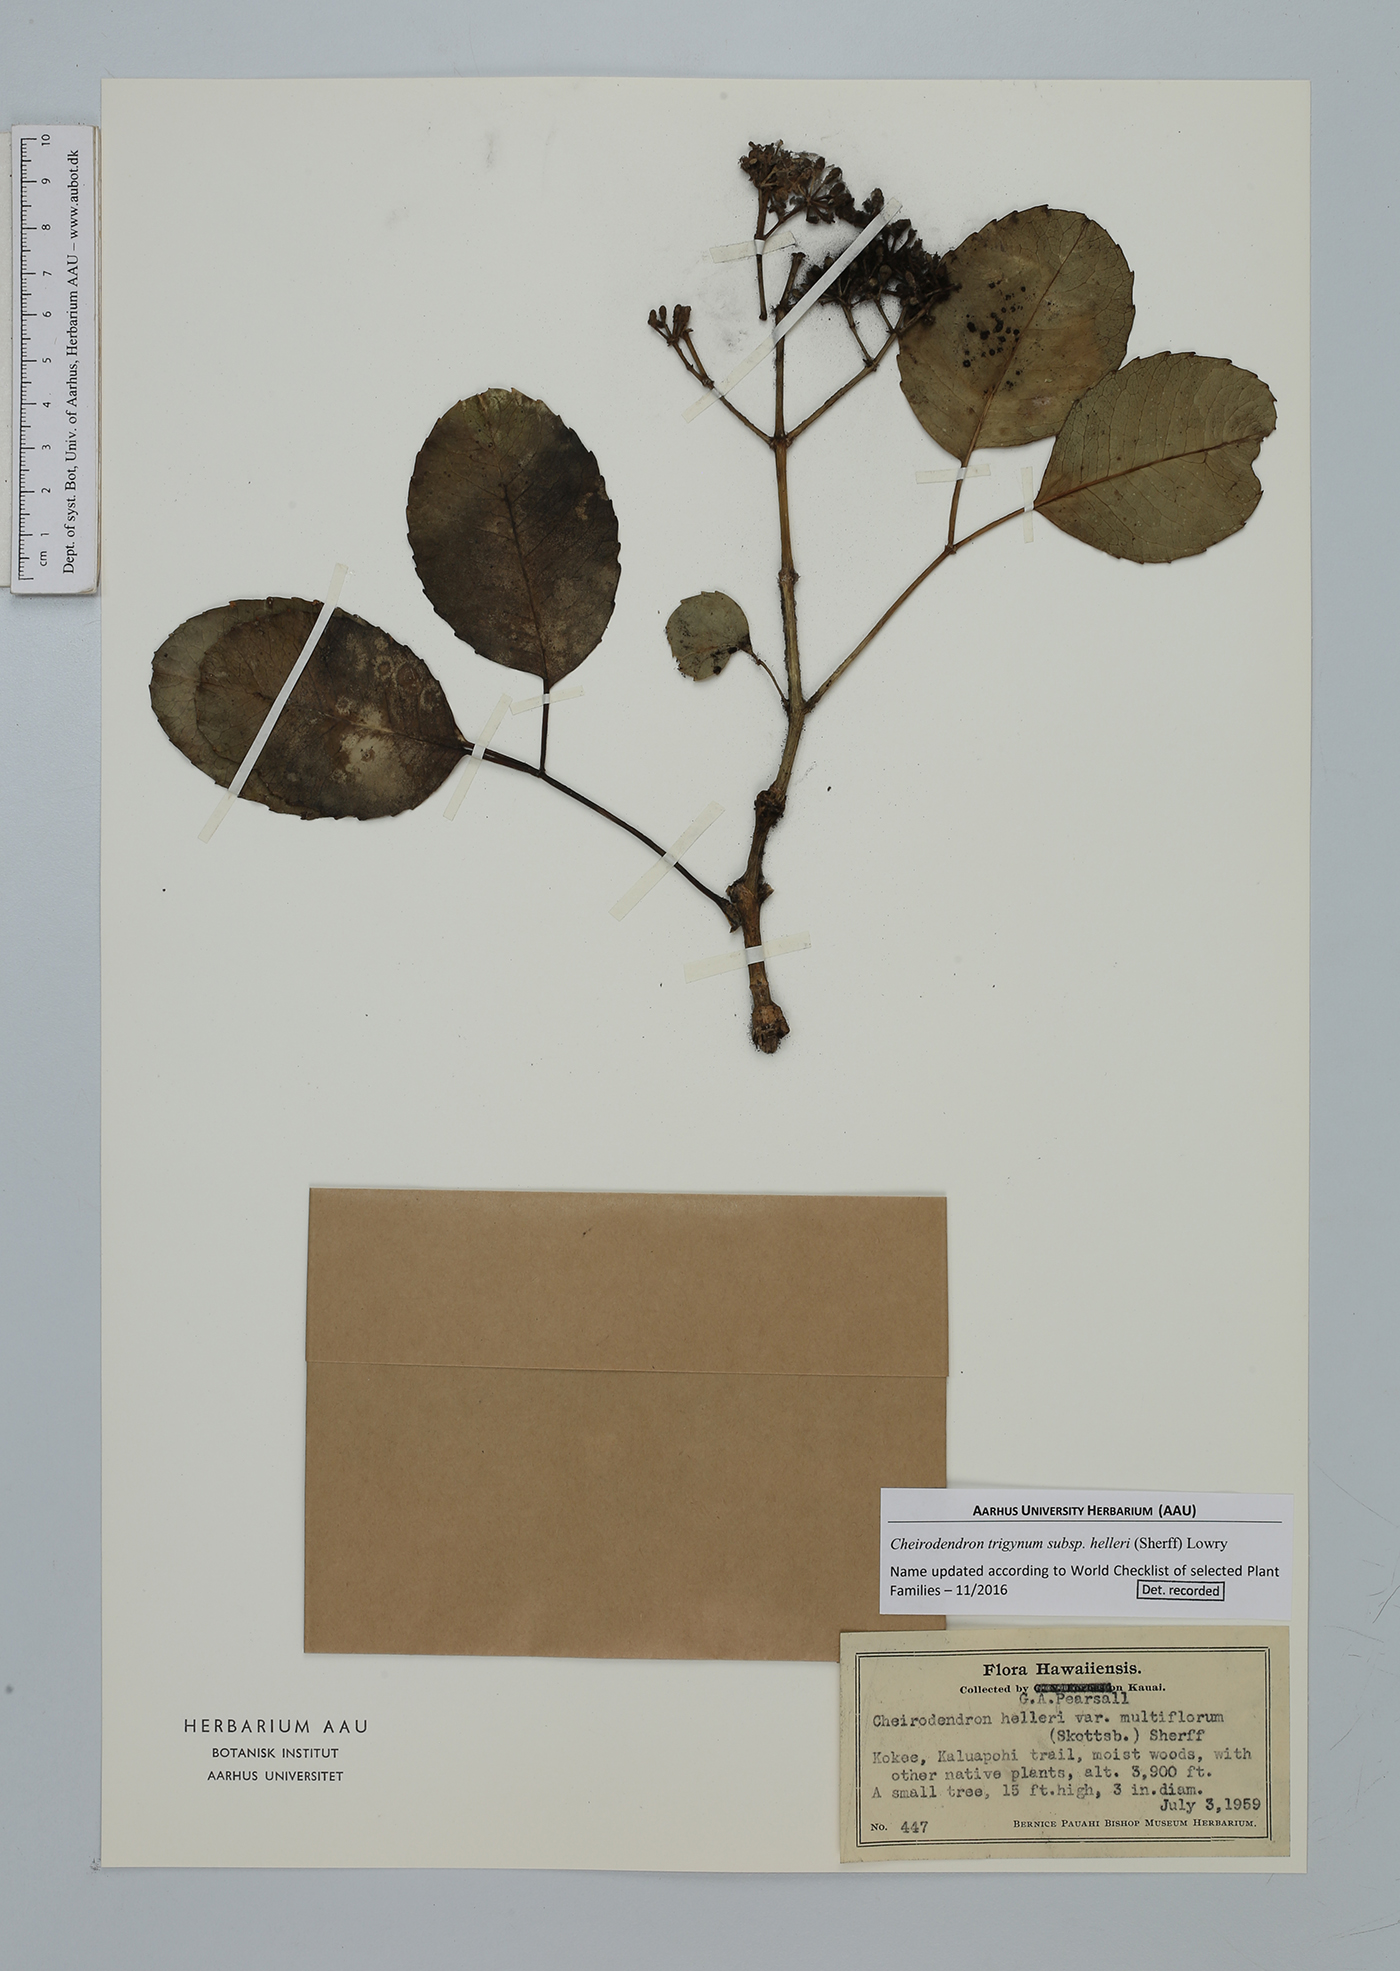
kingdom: Plantae
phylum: Tracheophyta
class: Magnoliopsida
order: Apiales
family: Araliaceae
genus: Cheirodendron
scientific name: Cheirodendron trigynum
